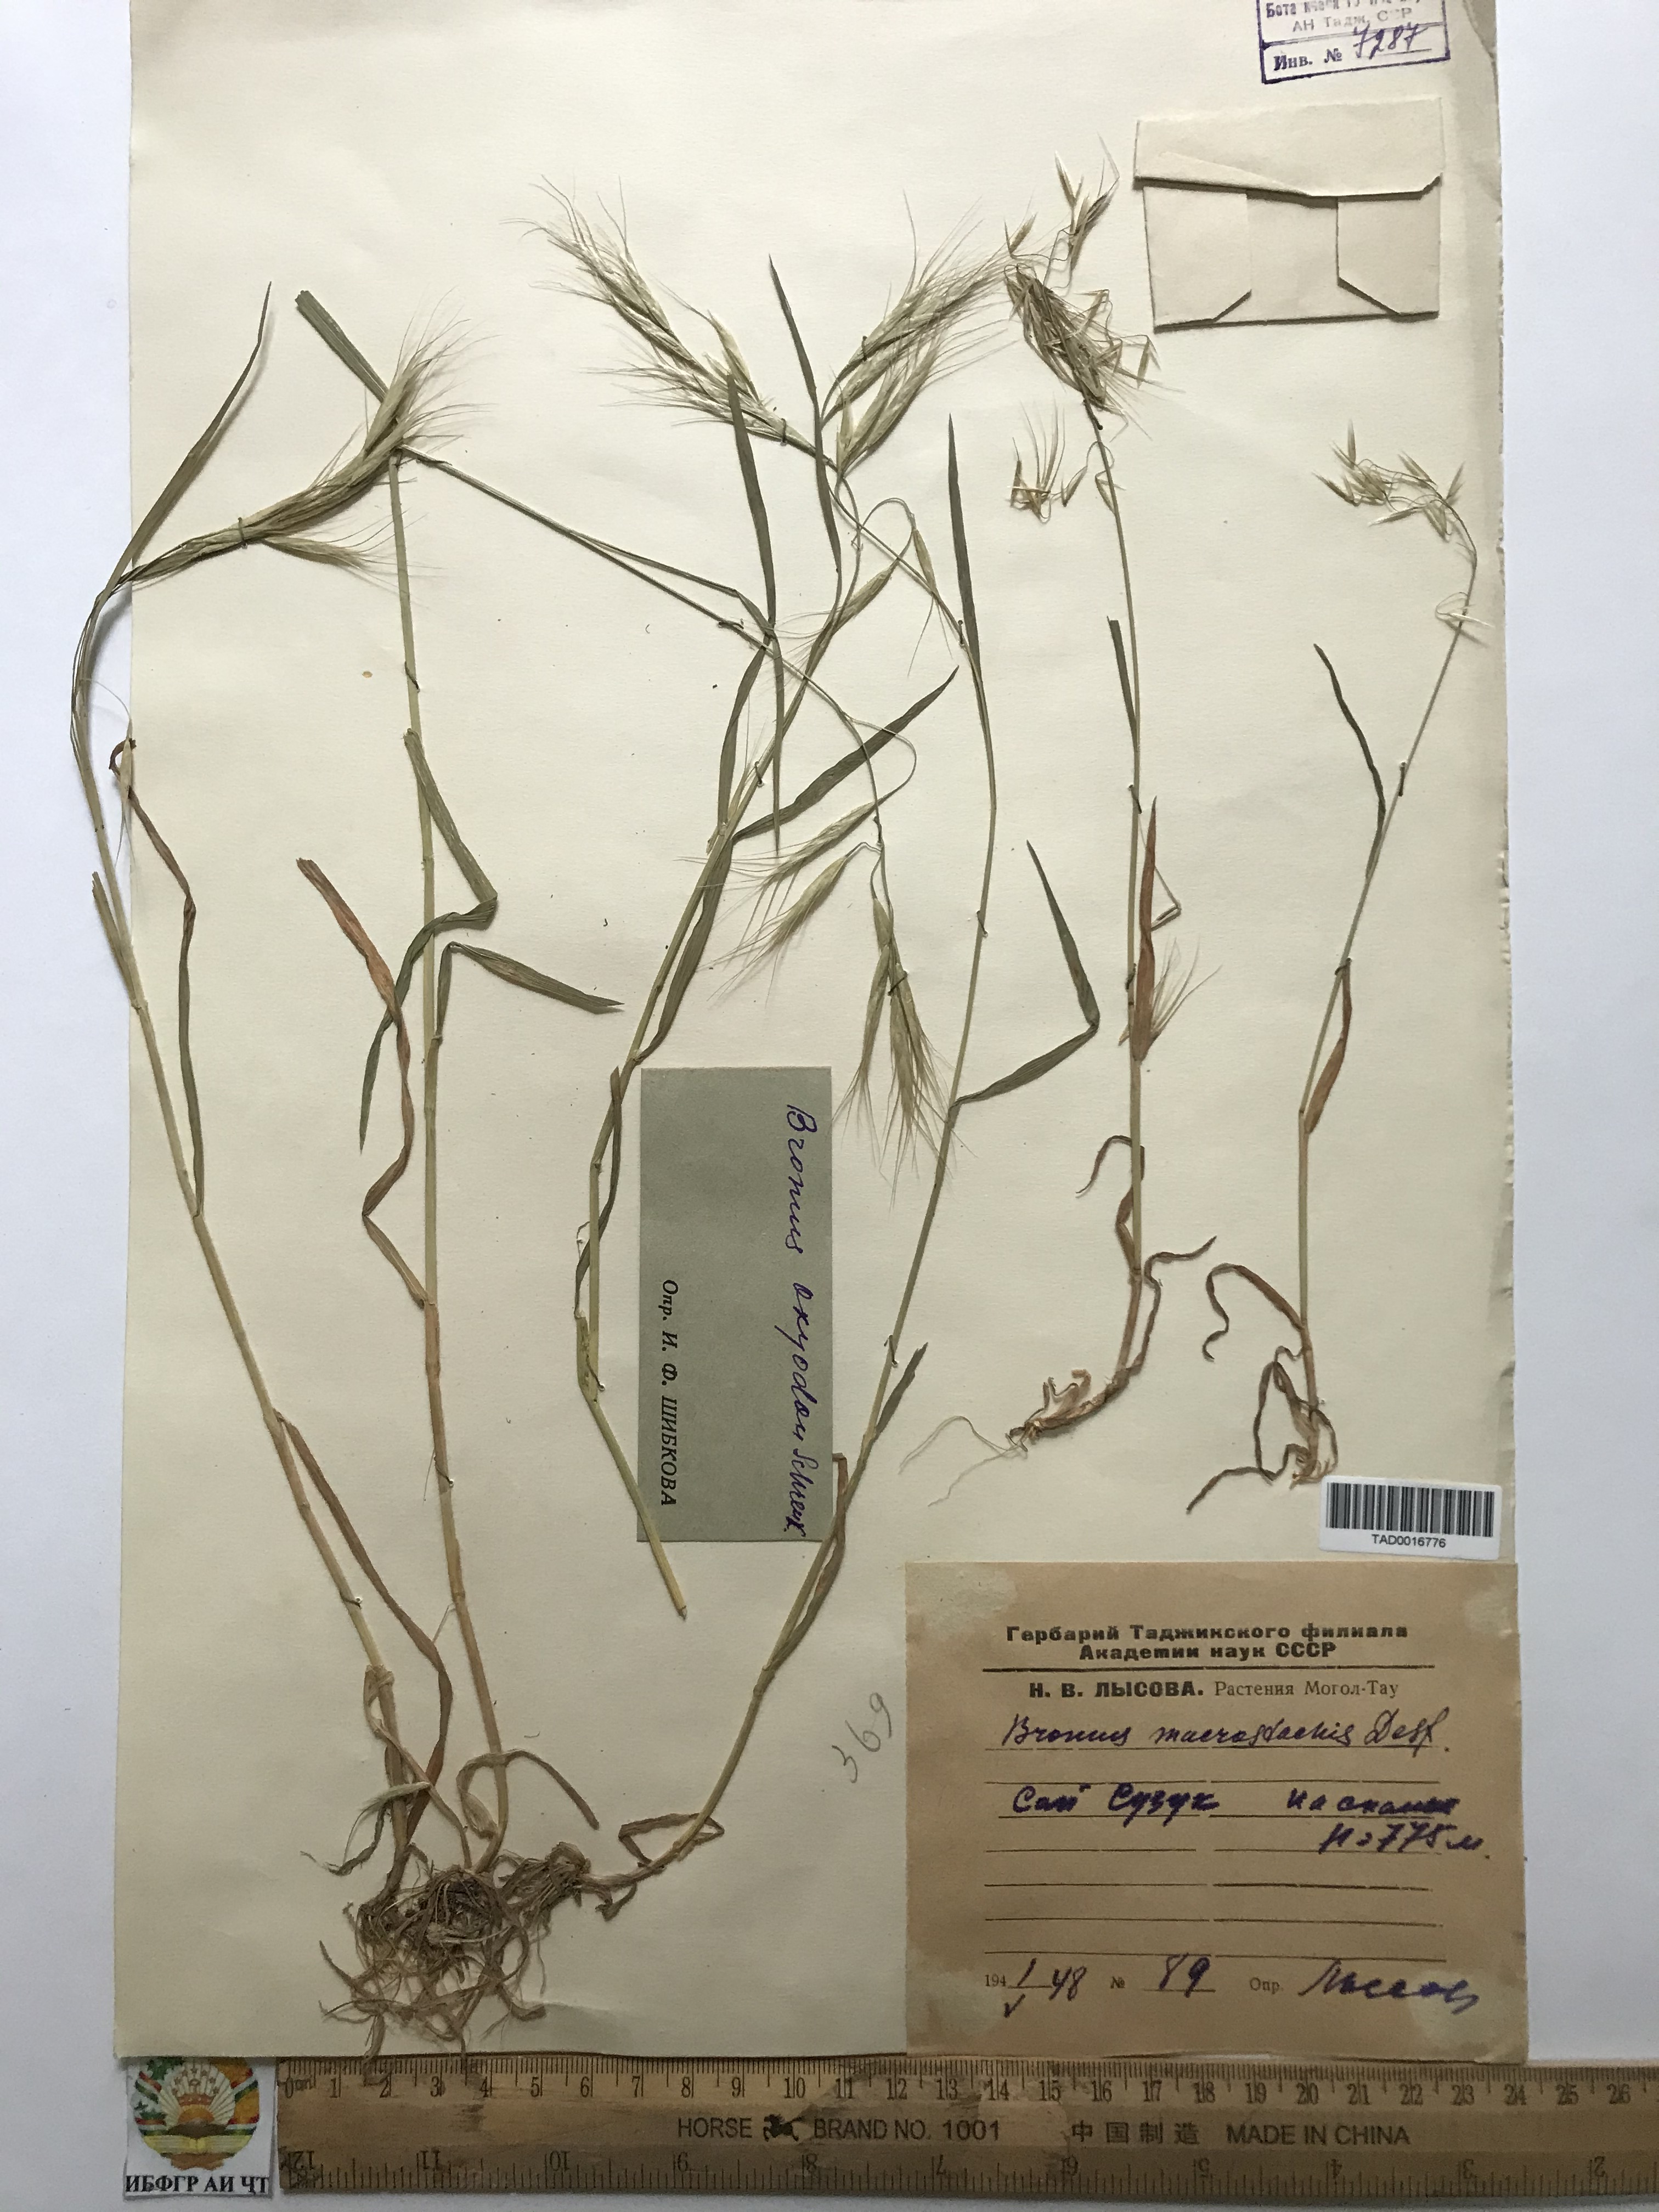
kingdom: Plantae
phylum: Tracheophyta
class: Liliopsida
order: Poales
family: Poaceae
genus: Bromus
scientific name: Bromus oxyodon
